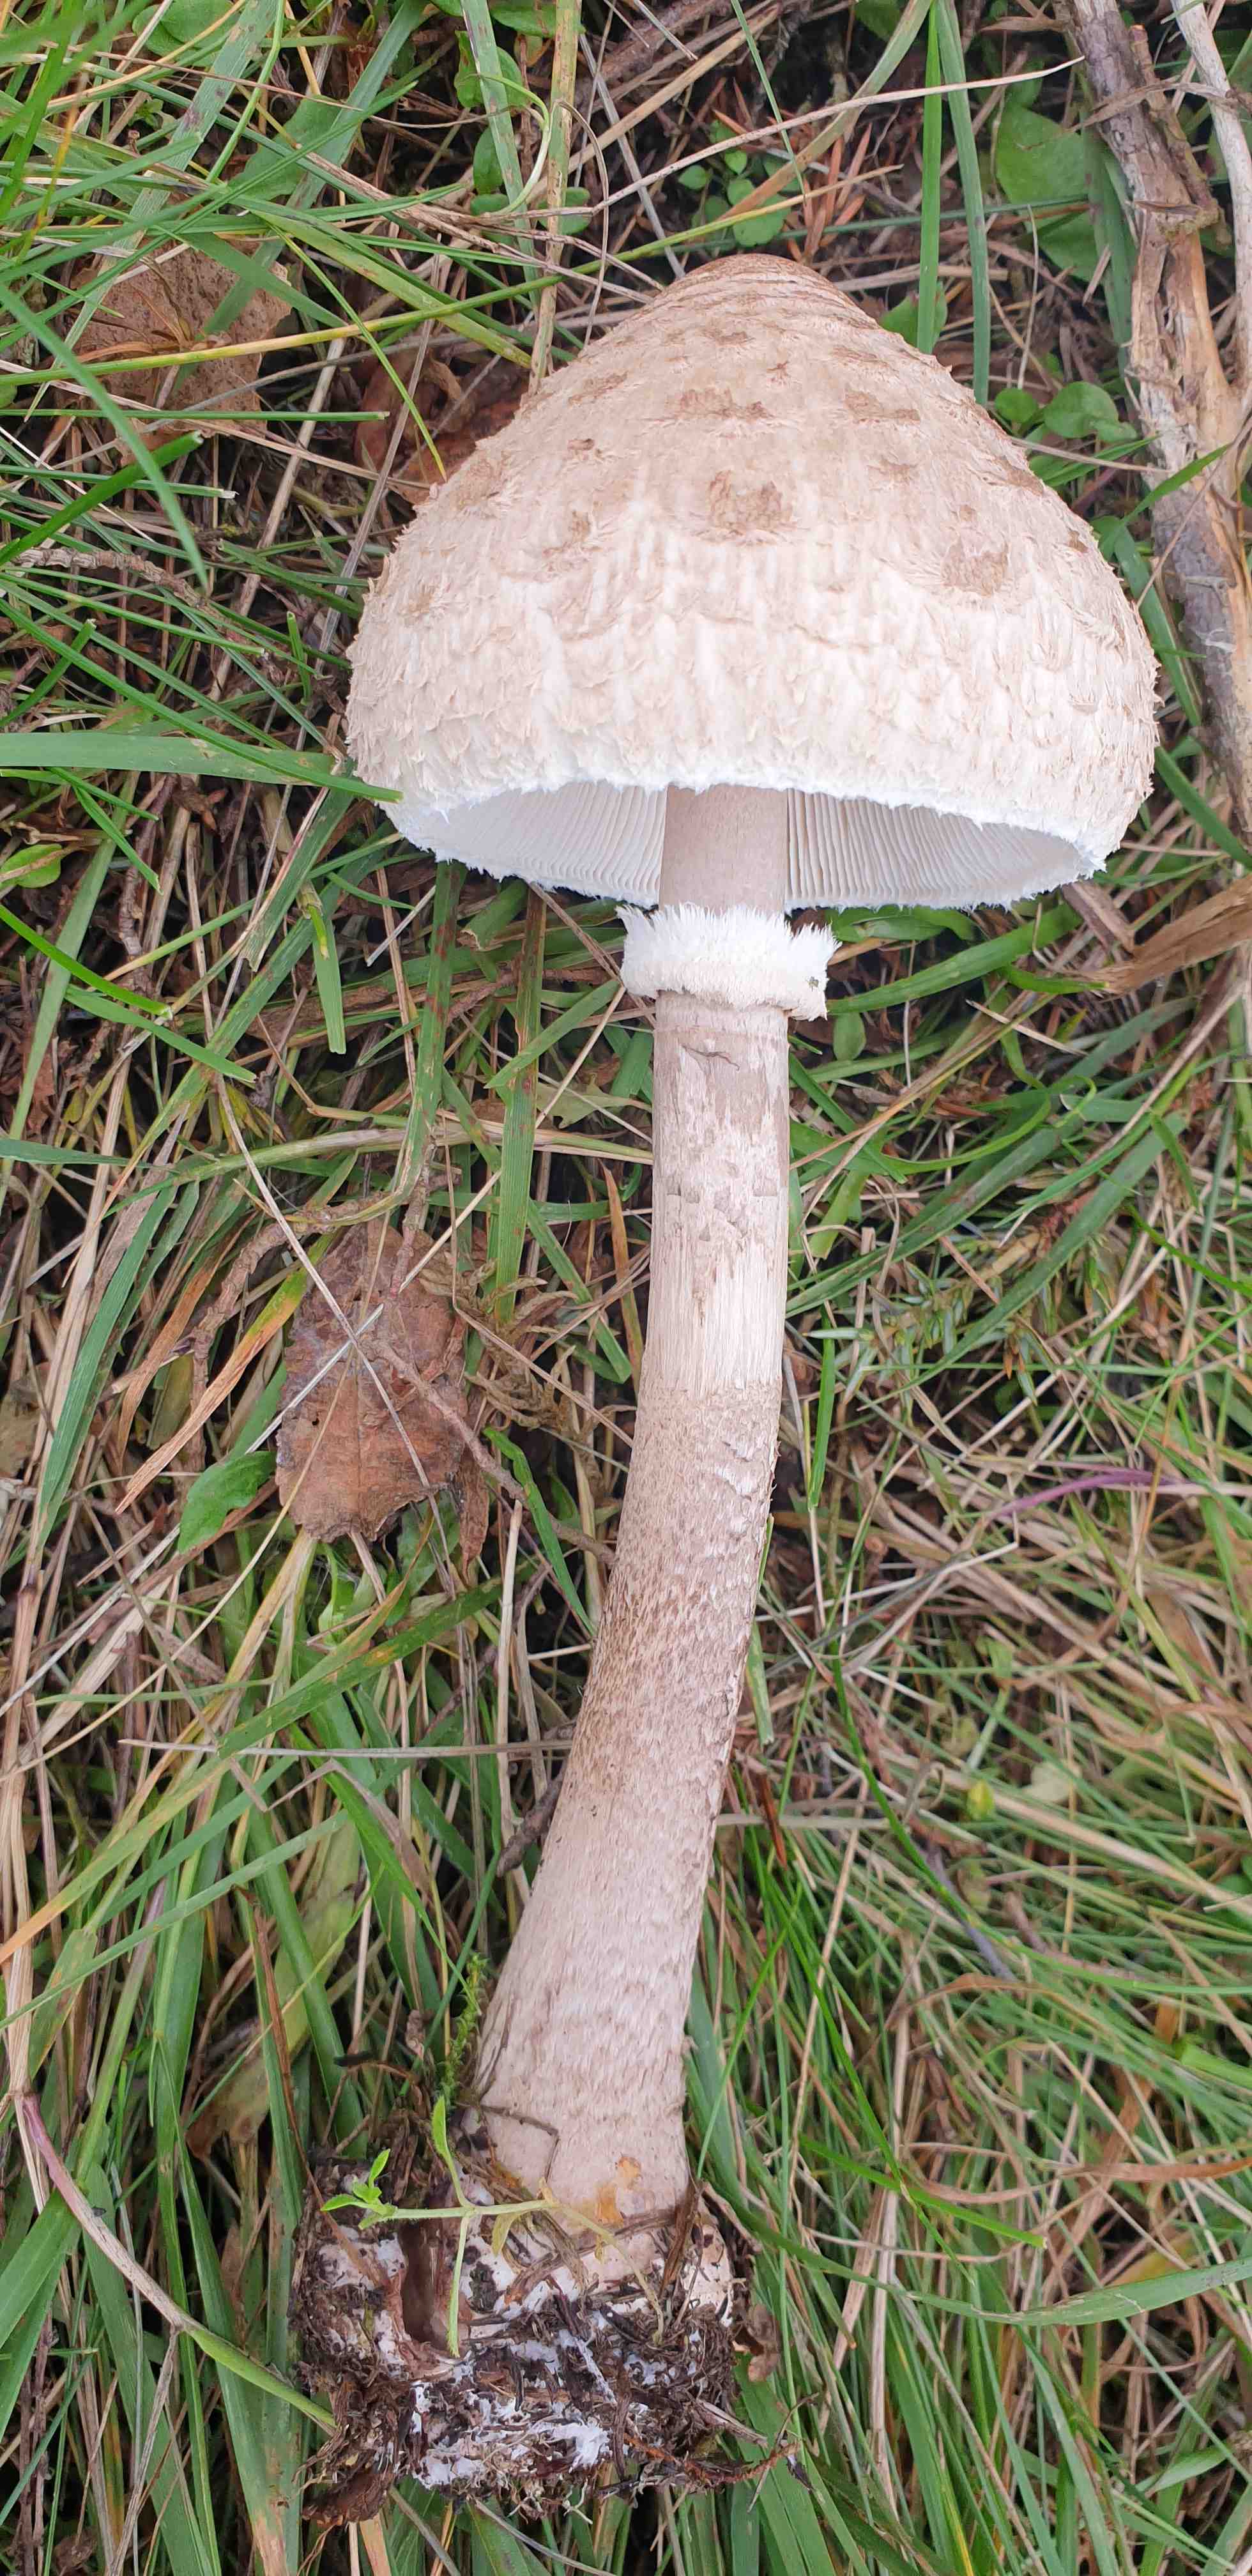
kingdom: Fungi
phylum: Basidiomycota
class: Agaricomycetes
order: Agaricales
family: Agaricaceae
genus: Macrolepiota
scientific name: Macrolepiota procera
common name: stor kæmpeparasolhat
